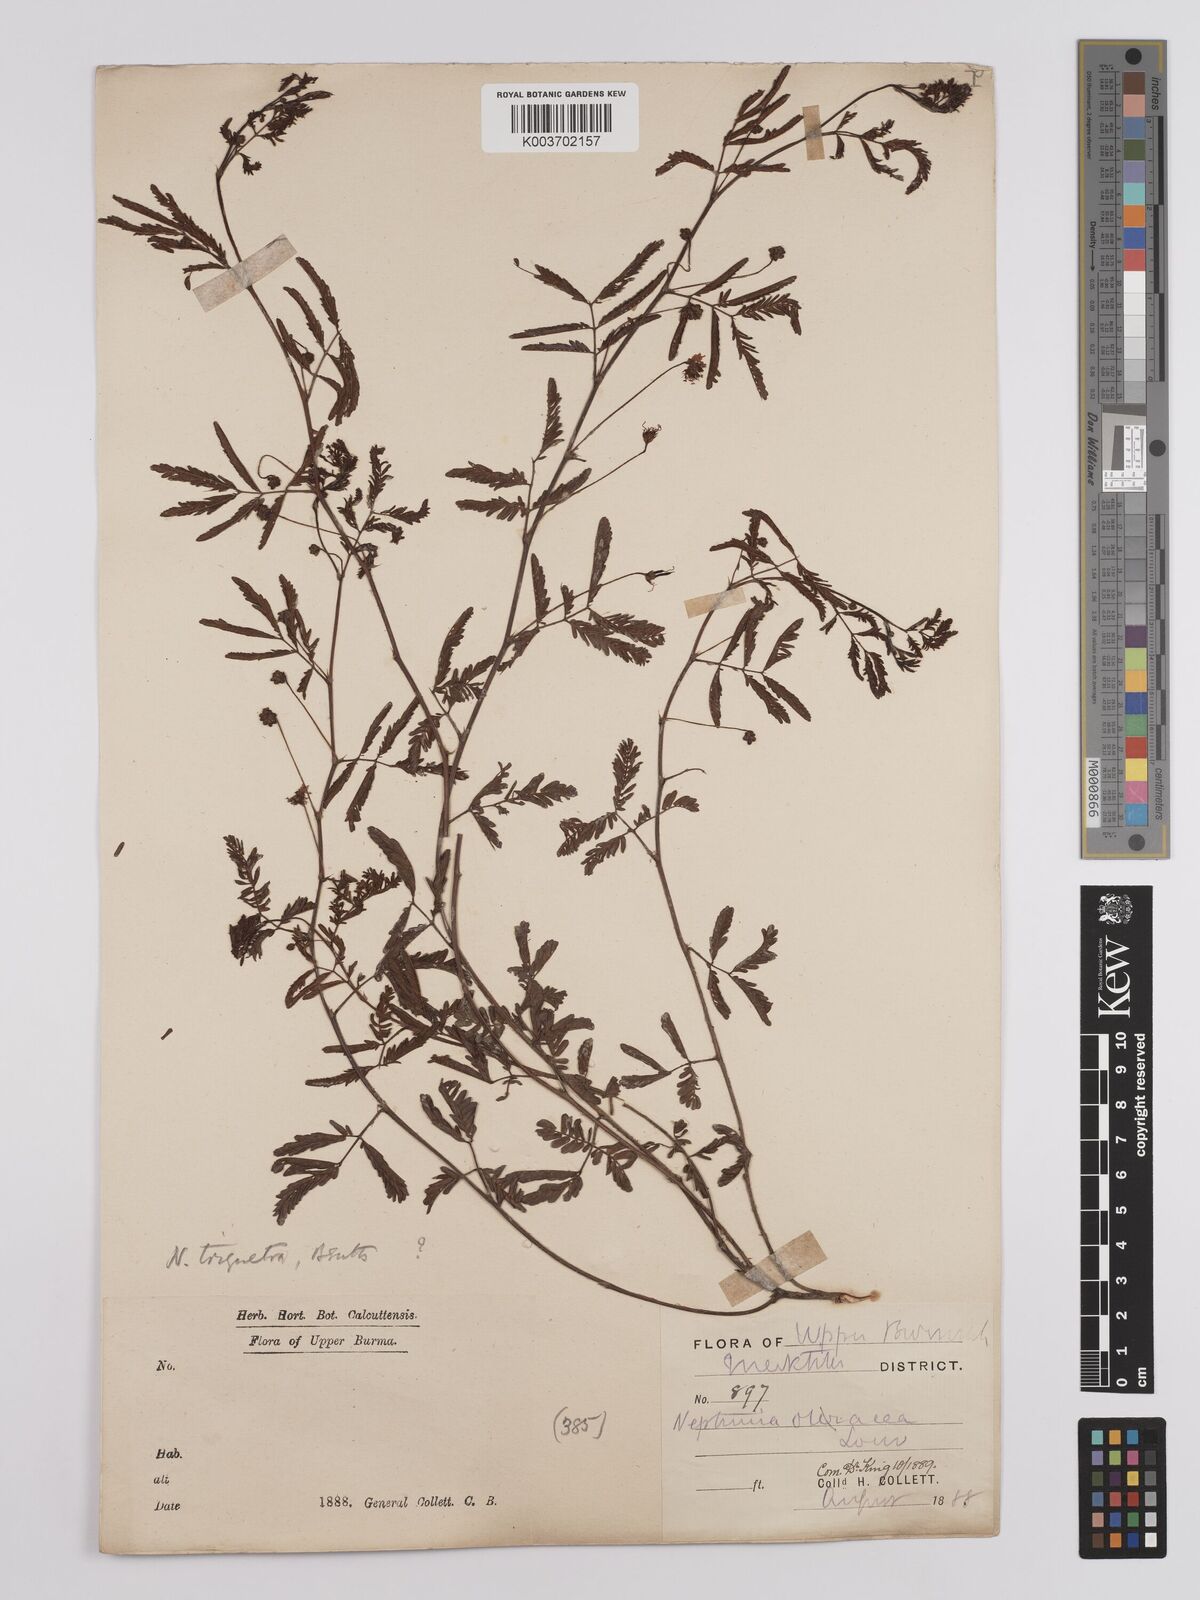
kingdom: Plantae
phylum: Tracheophyta
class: Magnoliopsida
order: Fabales
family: Fabaceae
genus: Neptunia
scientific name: Neptunia triquetra
